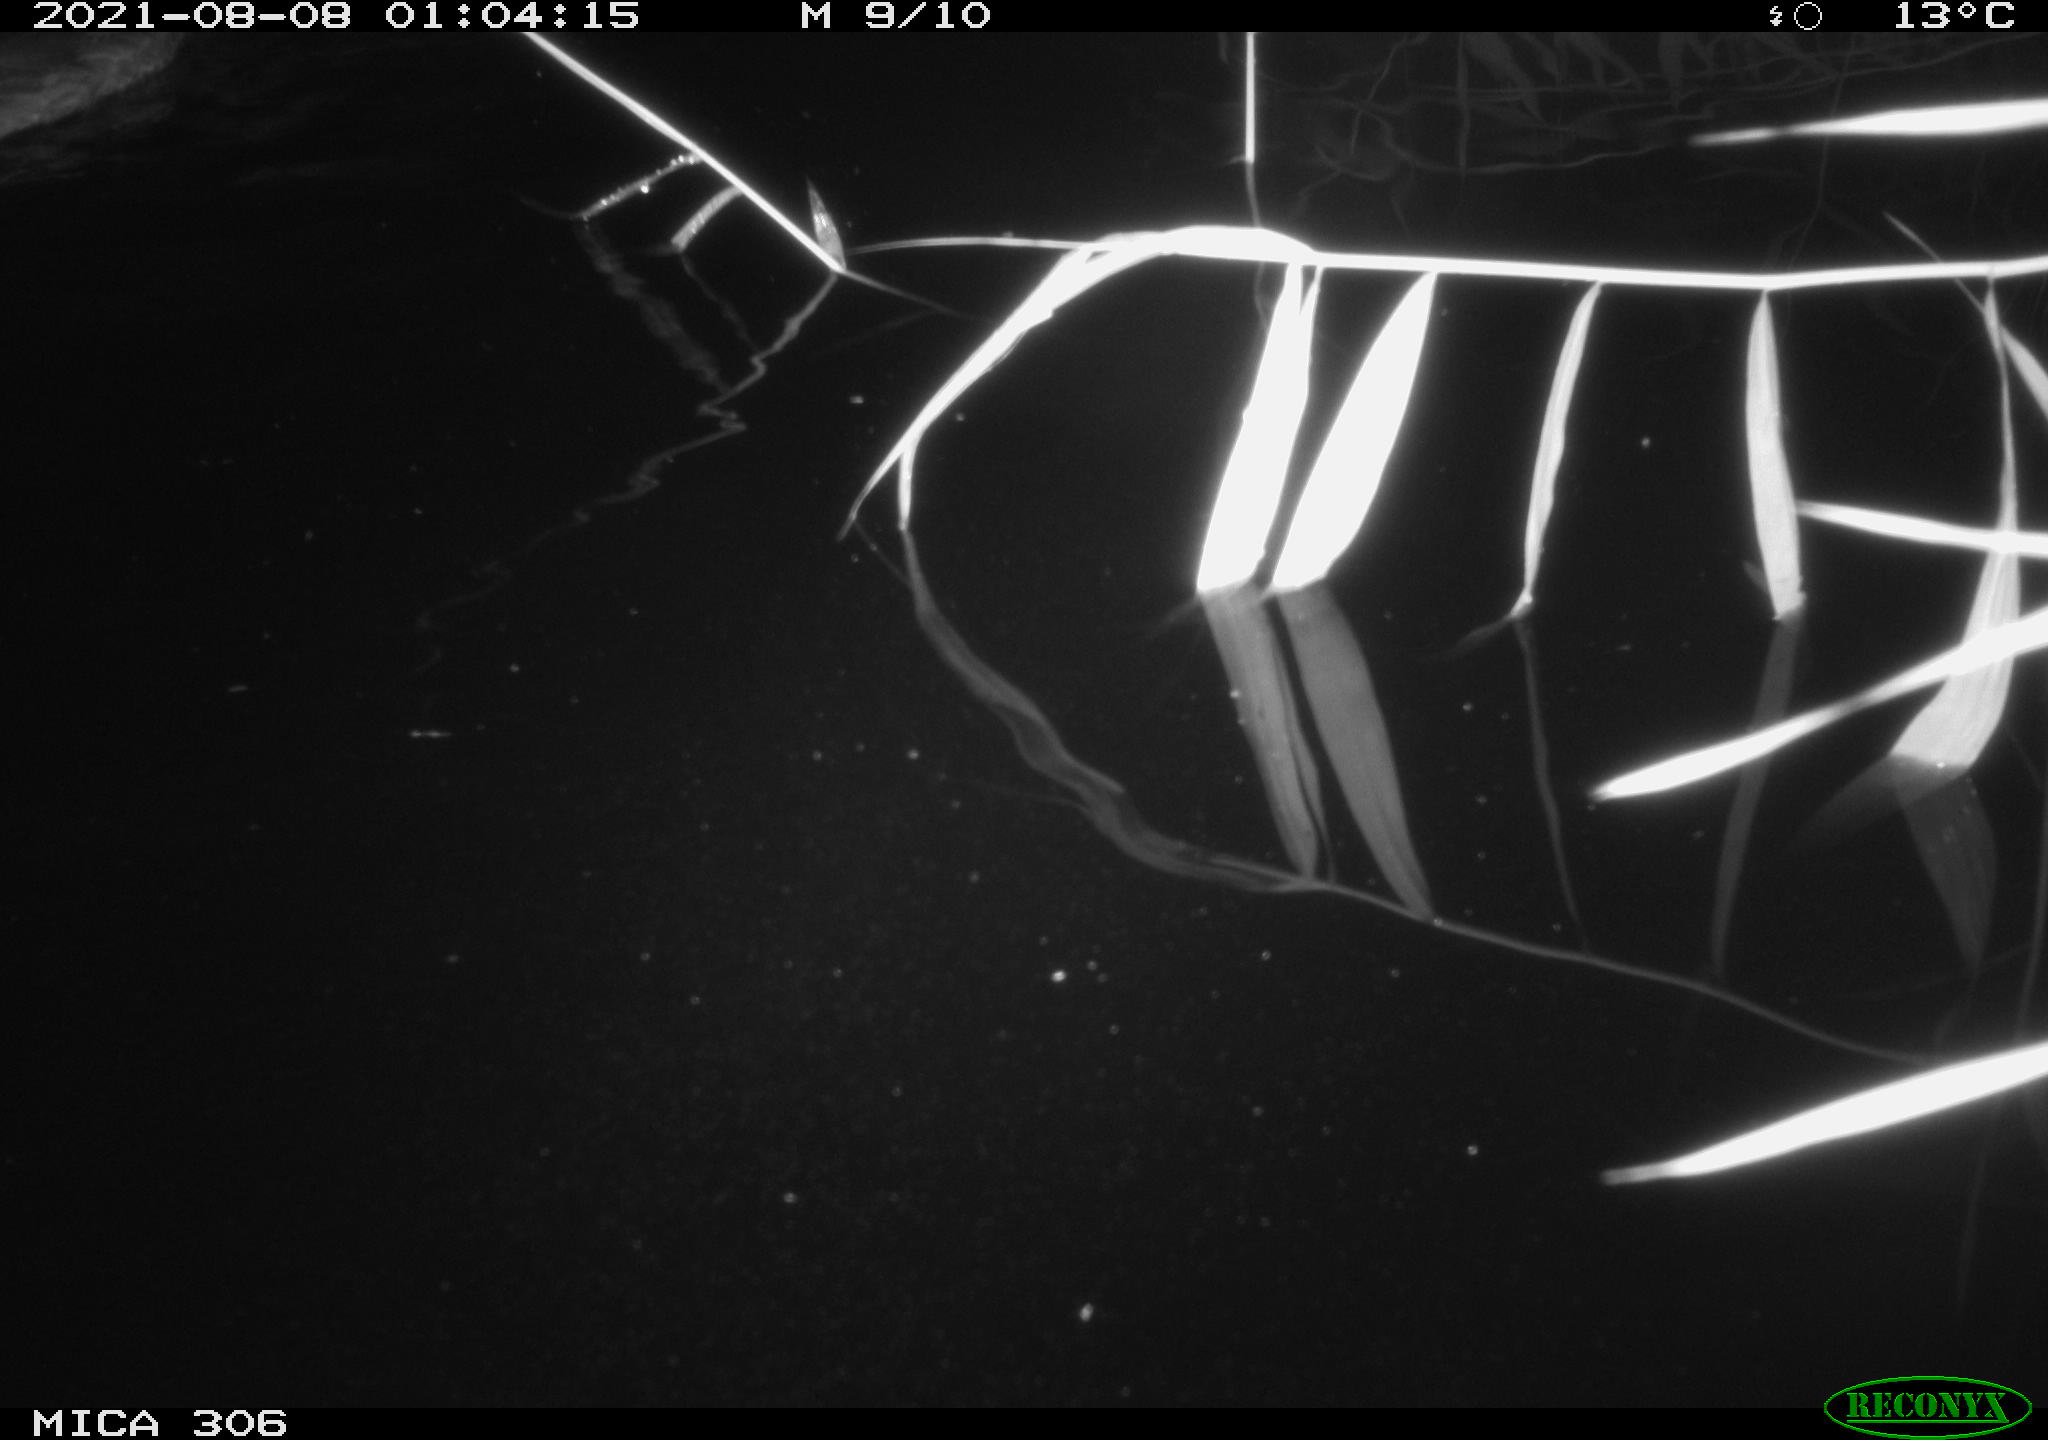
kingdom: Animalia
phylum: Chordata
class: Aves
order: Anseriformes
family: Anatidae
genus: Anas
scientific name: Anas platyrhynchos
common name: Mallard
